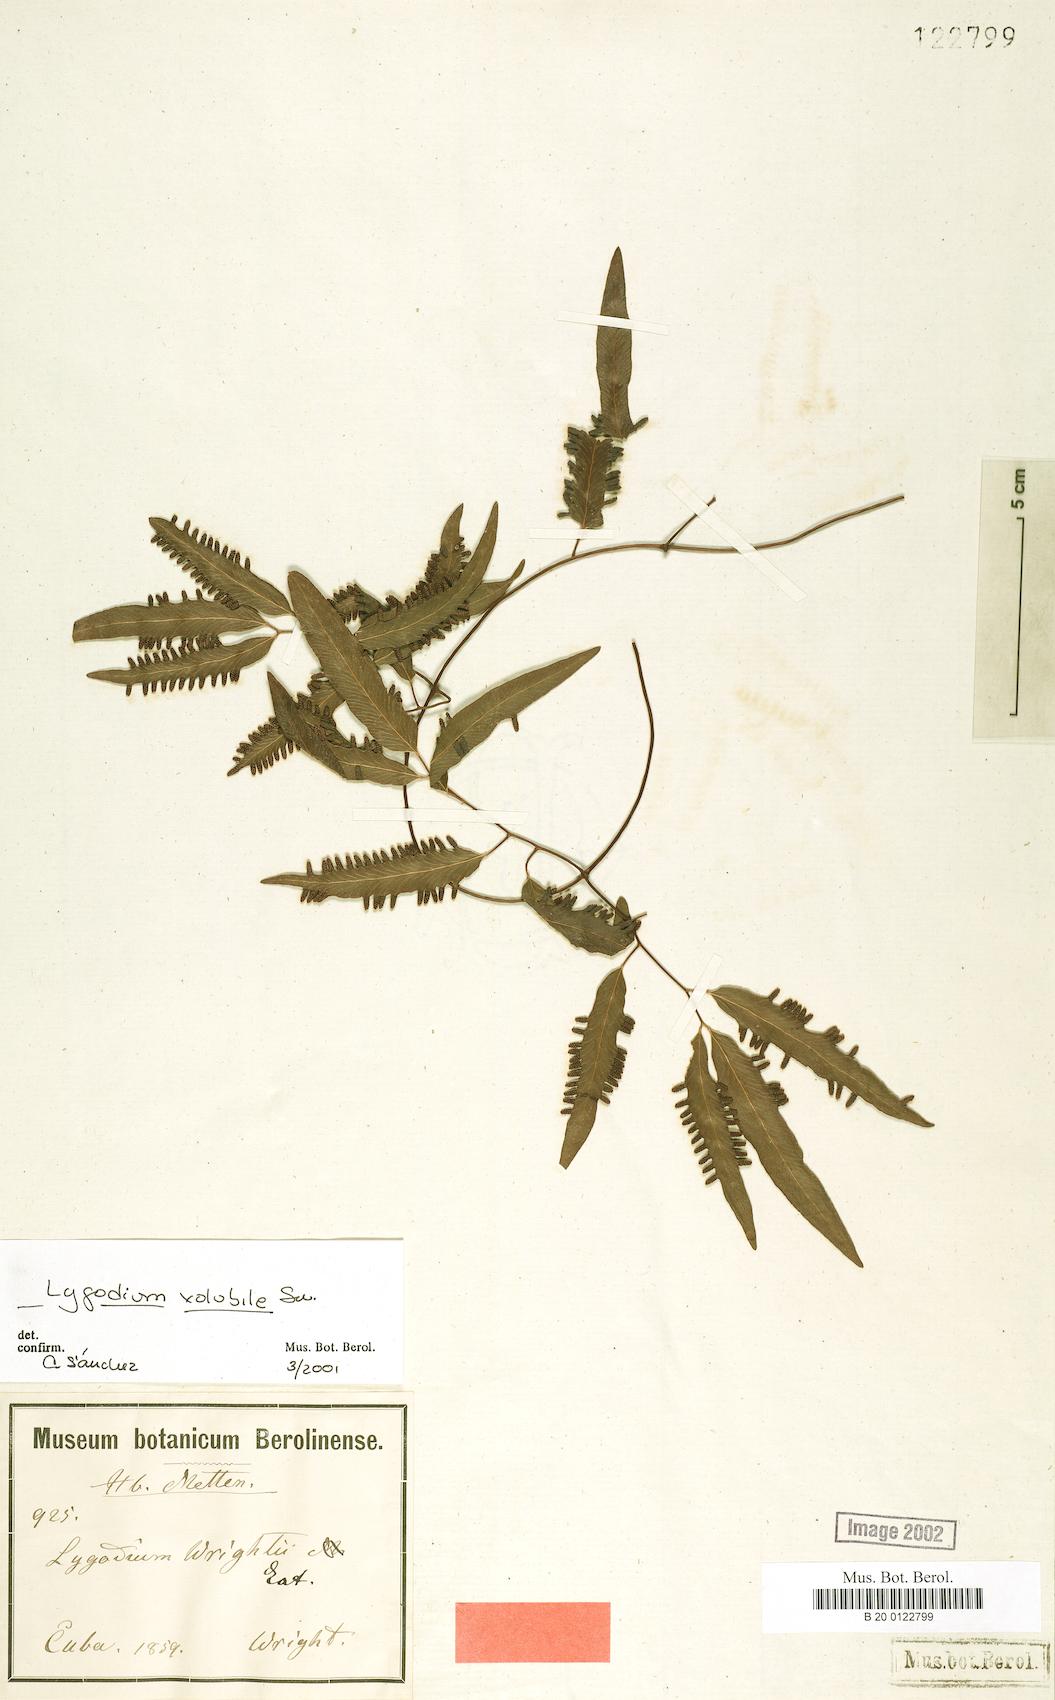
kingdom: Plantae
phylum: Tracheophyta
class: Polypodiopsida
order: Schizaeales
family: Lygodiaceae
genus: Lygodium
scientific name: Lygodium volubile
